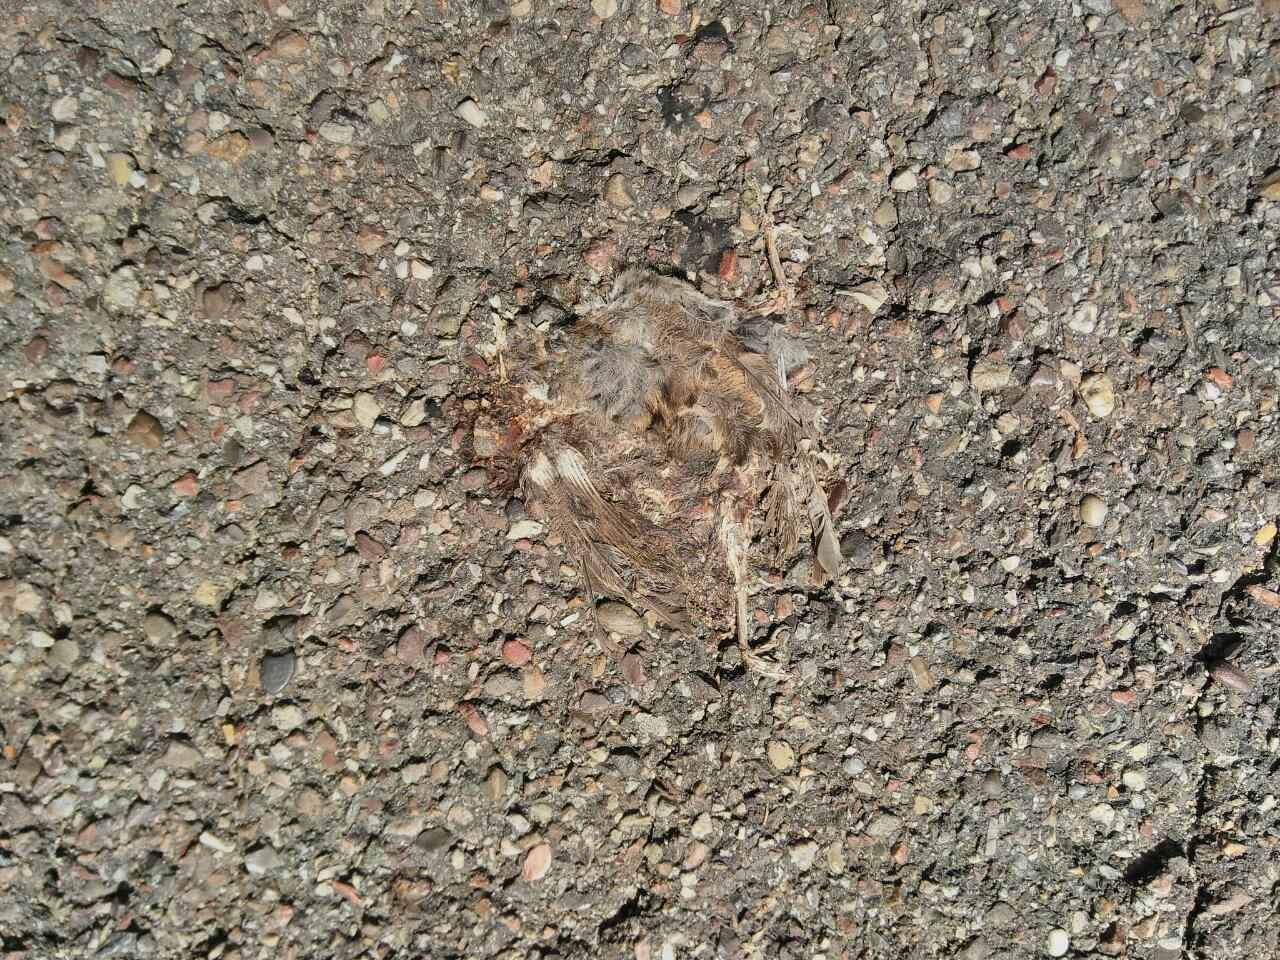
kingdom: Animalia
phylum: Chordata
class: Aves
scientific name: Aves
